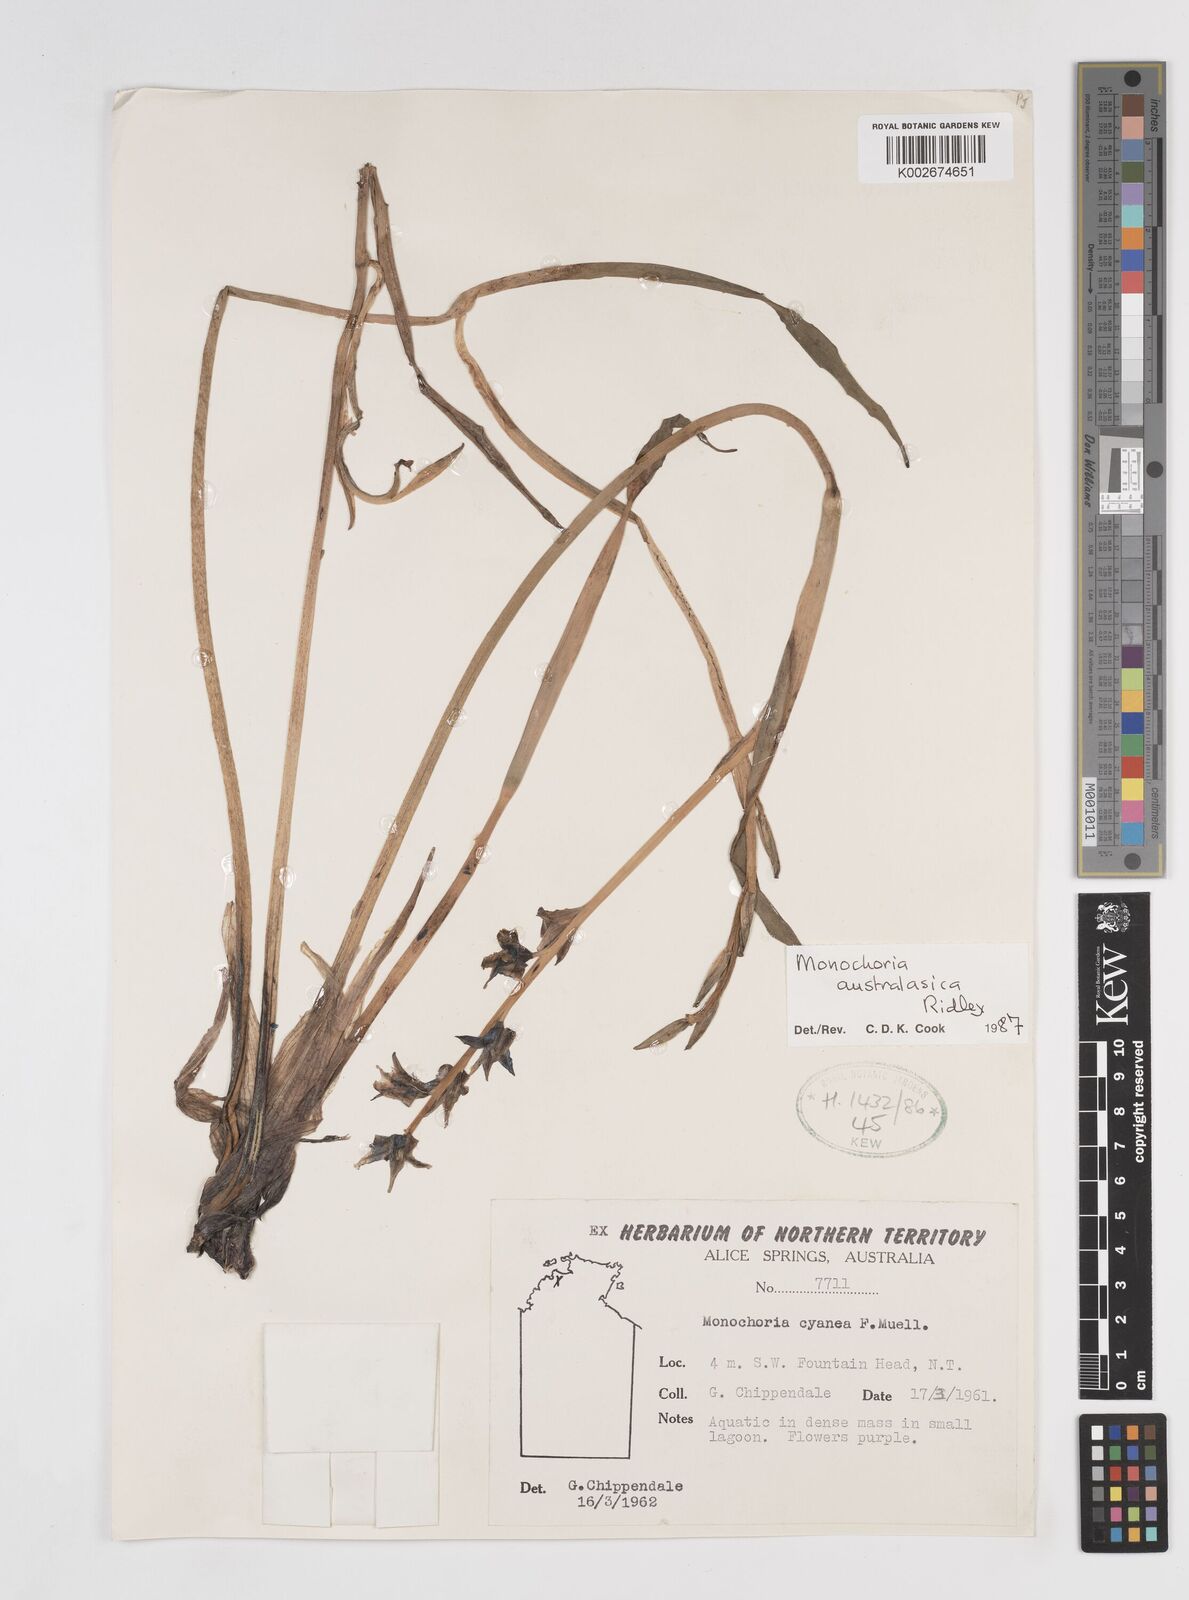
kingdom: Plantae
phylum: Tracheophyta
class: Liliopsida
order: Commelinales
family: Pontederiaceae
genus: Pontederia
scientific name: Pontederia australasica
